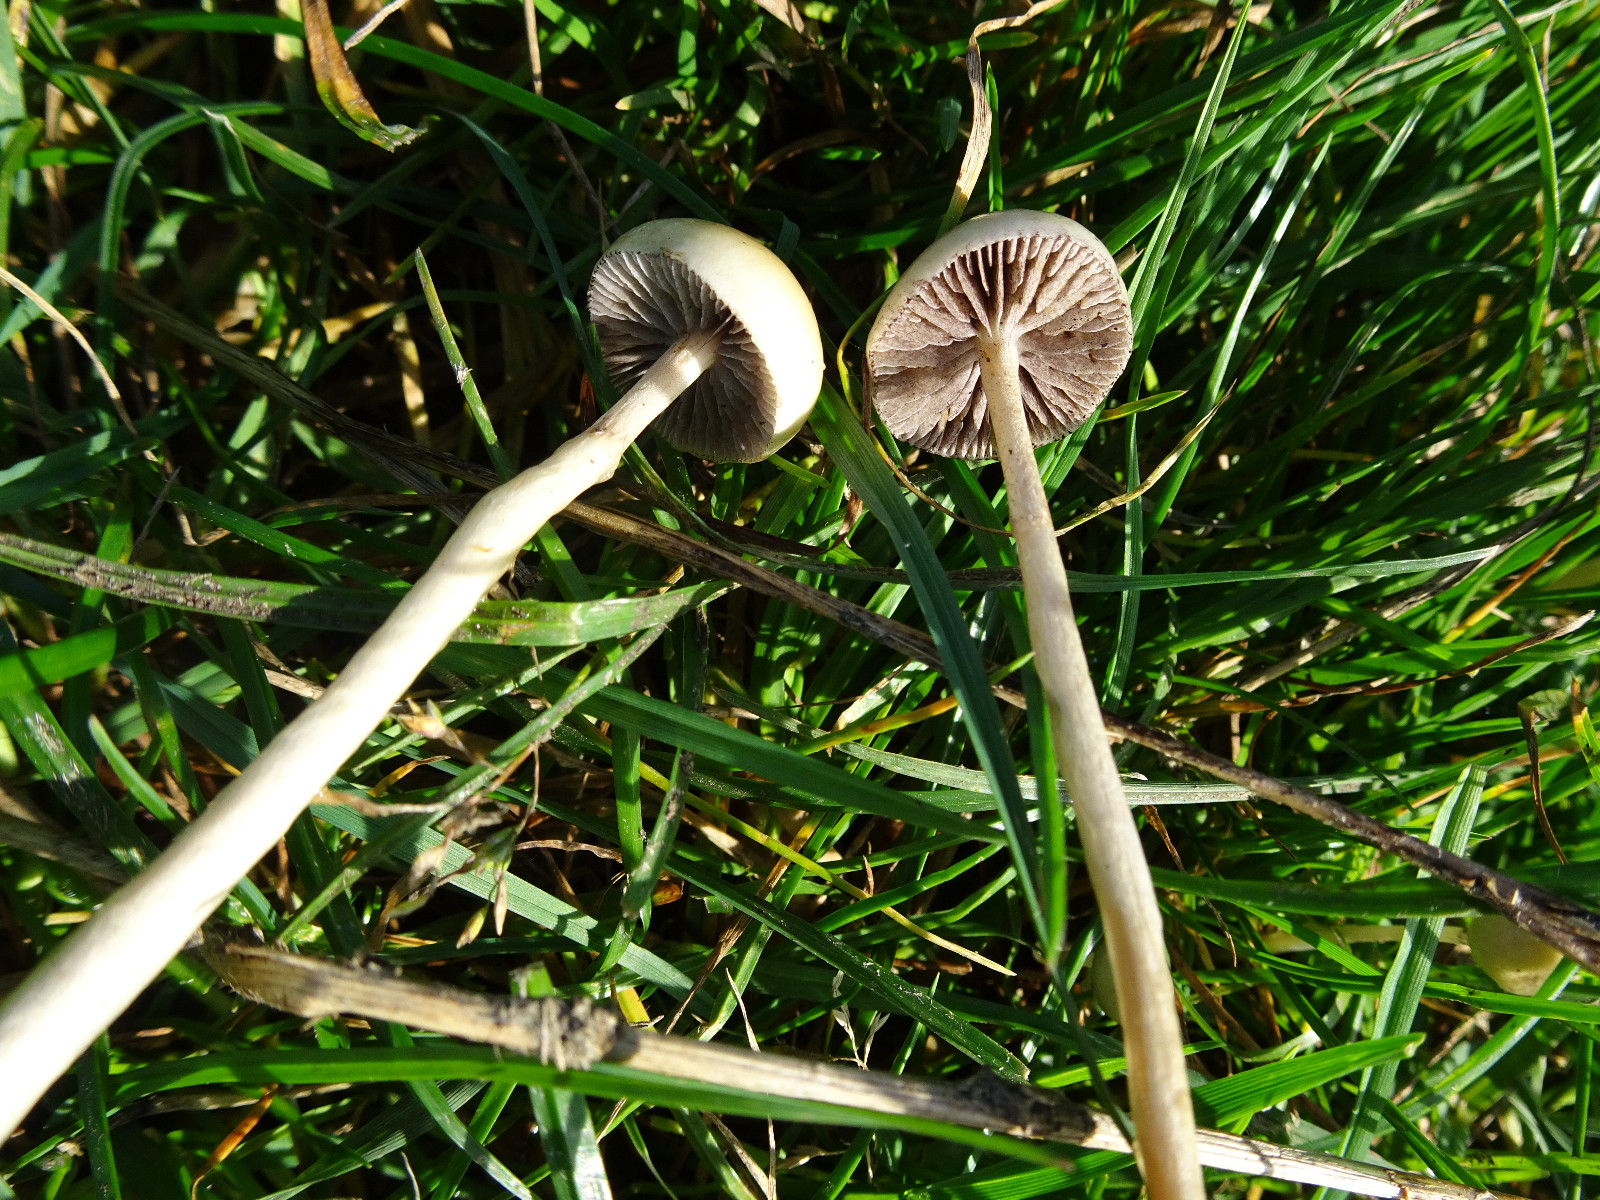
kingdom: Fungi
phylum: Basidiomycota
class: Agaricomycetes
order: Agaricales
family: Strophariaceae
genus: Protostropharia
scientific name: Protostropharia semiglobata
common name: halvkugleformet bredblad
